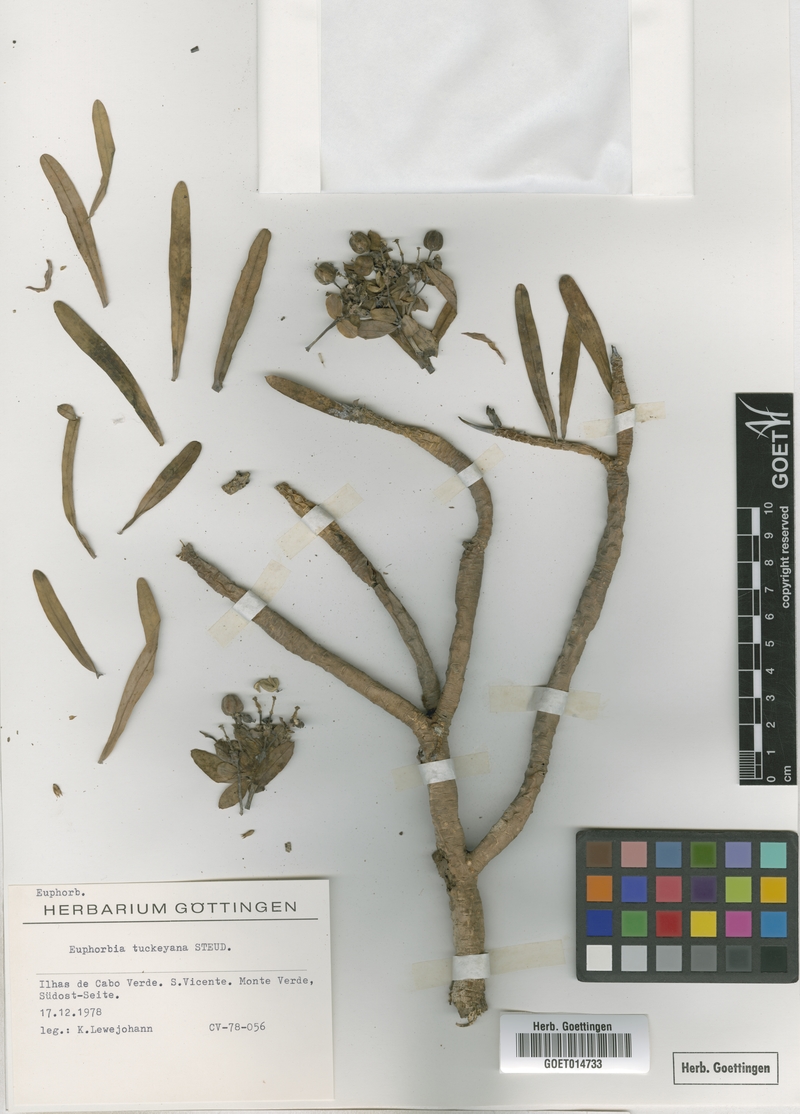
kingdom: Plantae
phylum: Tracheophyta
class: Magnoliopsida
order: Malpighiales
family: Euphorbiaceae
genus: Euphorbia
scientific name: Euphorbia tuckeyana
